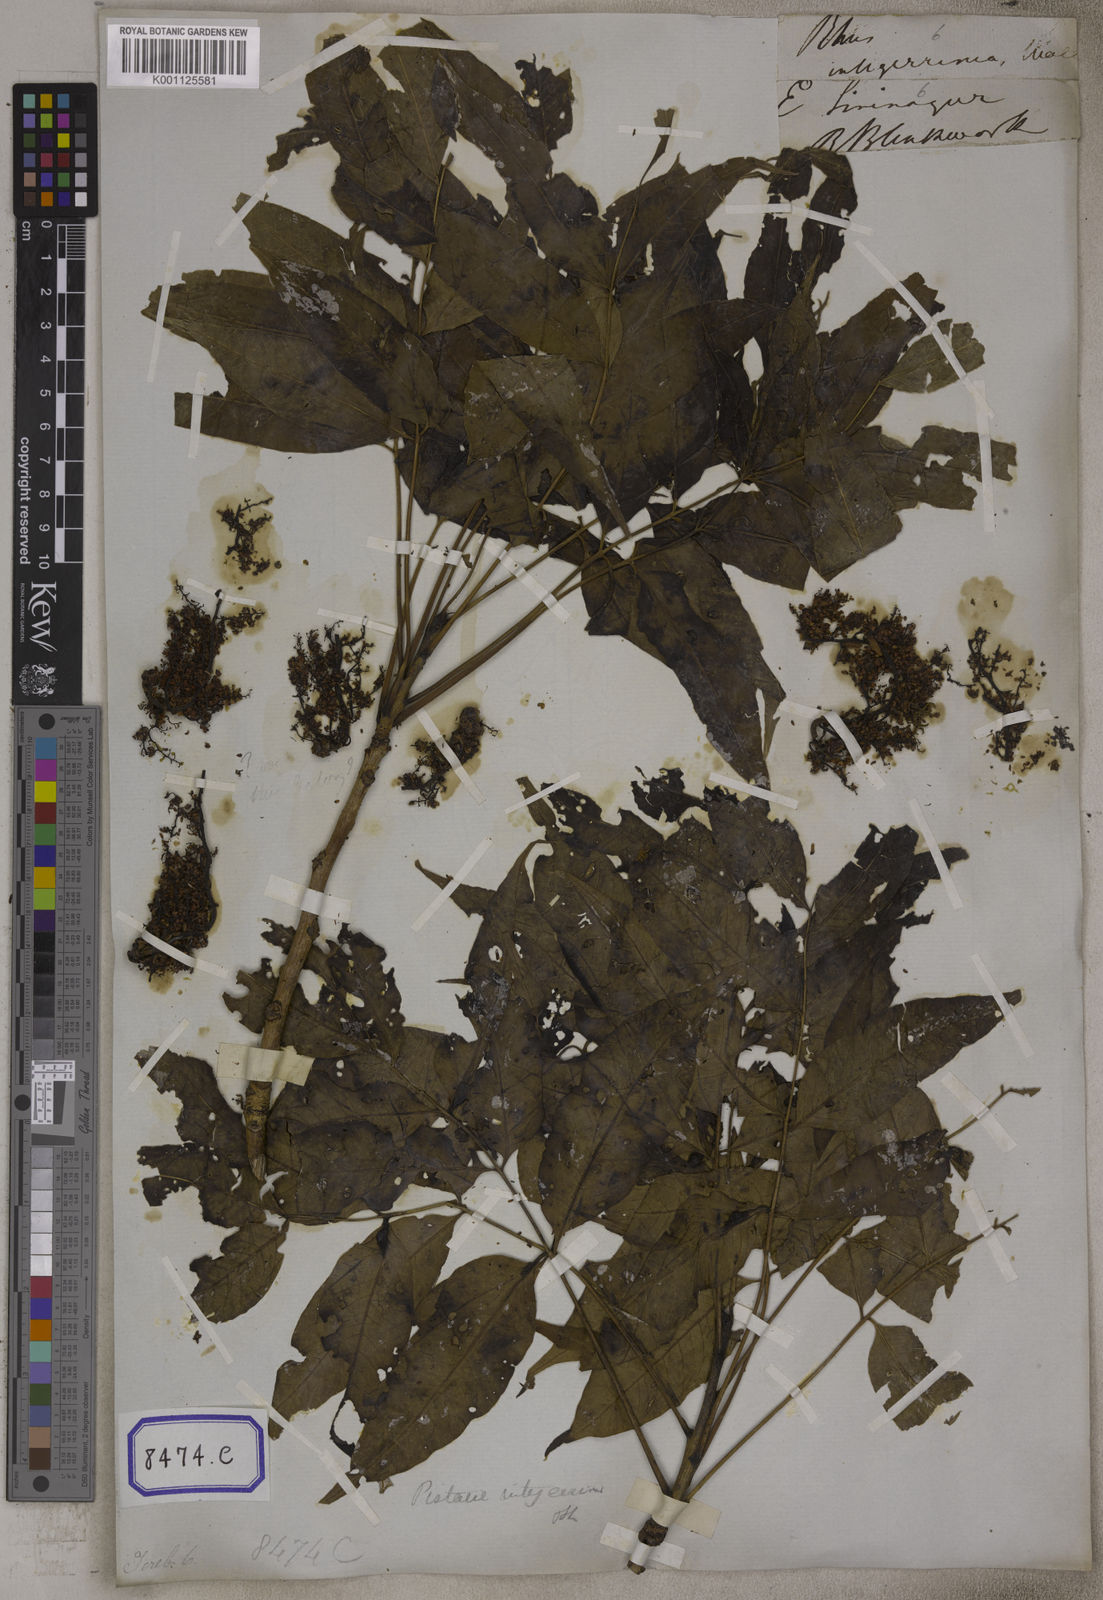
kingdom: Plantae
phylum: Tracheophyta
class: Magnoliopsida
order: Sapindales
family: Anacardiaceae
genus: Pistacia
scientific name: Pistacia chinensis
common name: Chinese pistache
